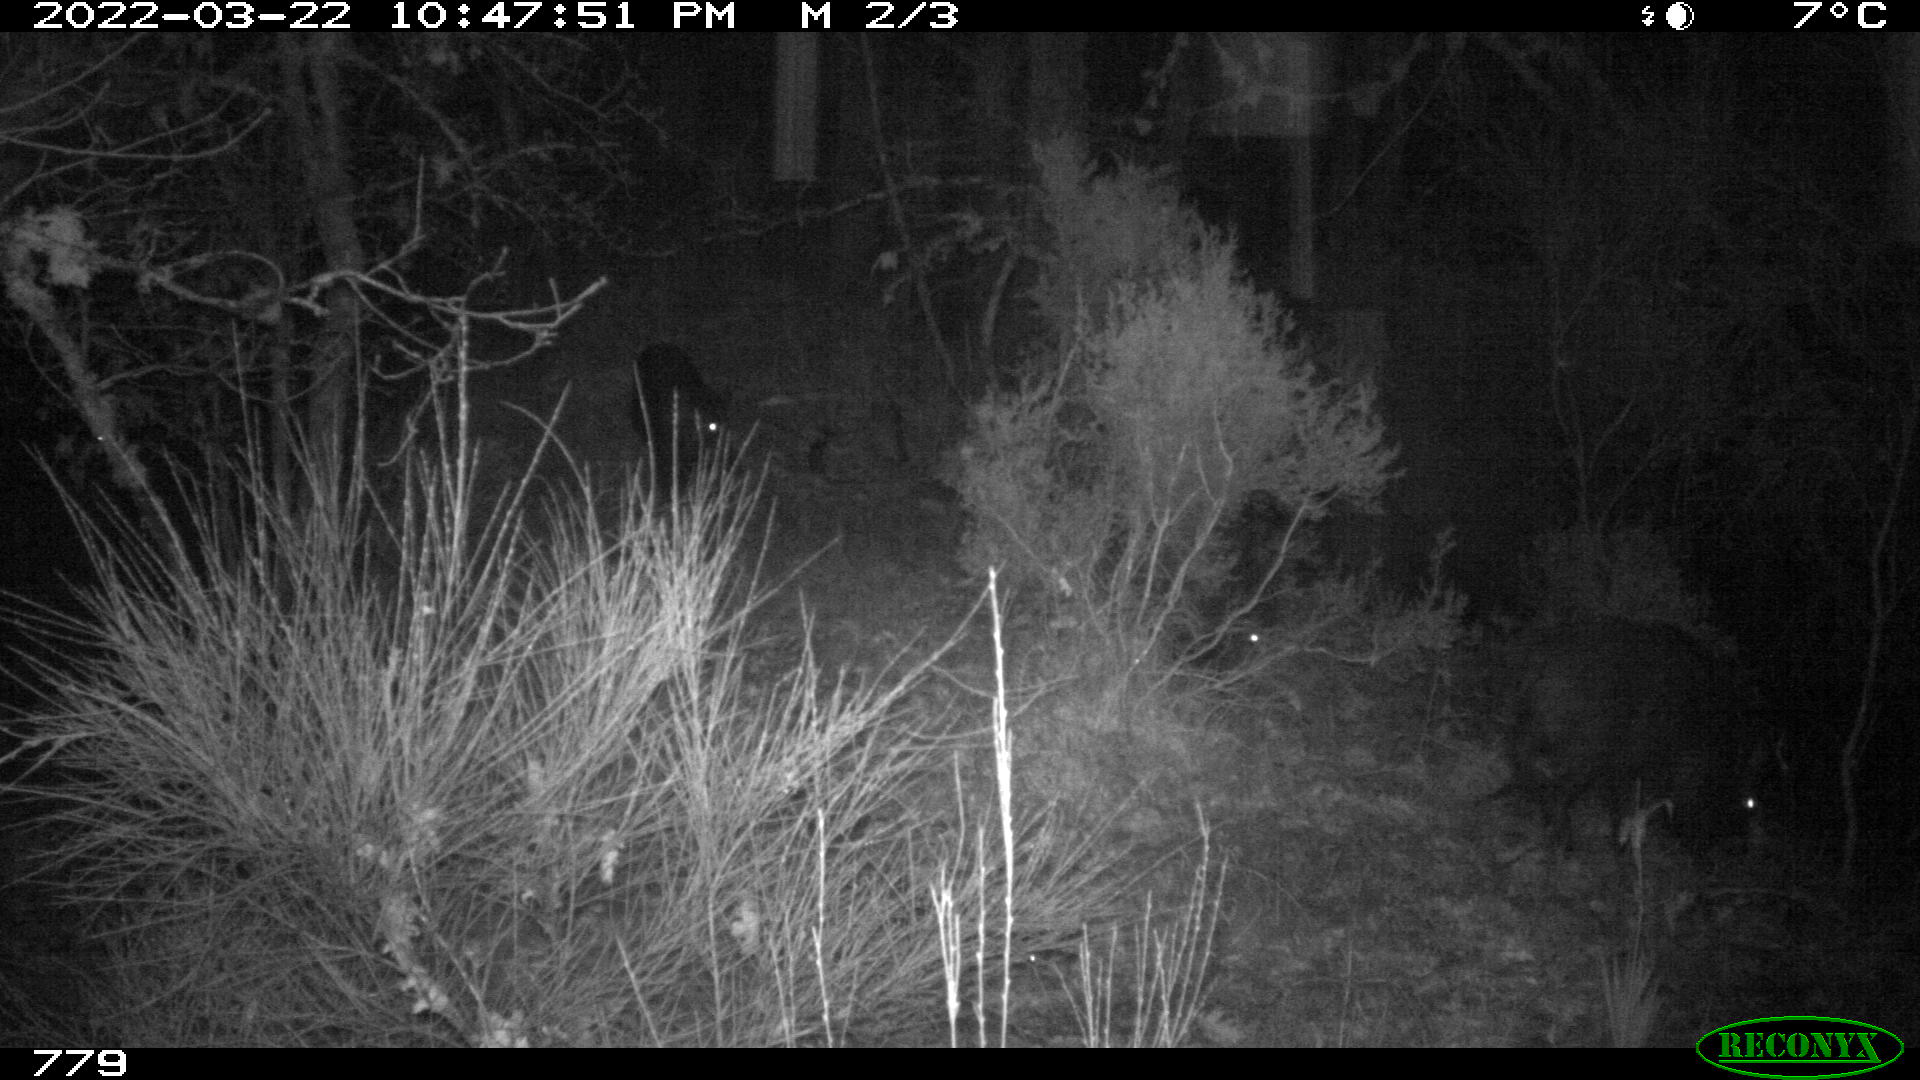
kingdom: Animalia
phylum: Chordata
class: Mammalia
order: Artiodactyla
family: Suidae
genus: Sus
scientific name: Sus scrofa
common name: Wild boar
